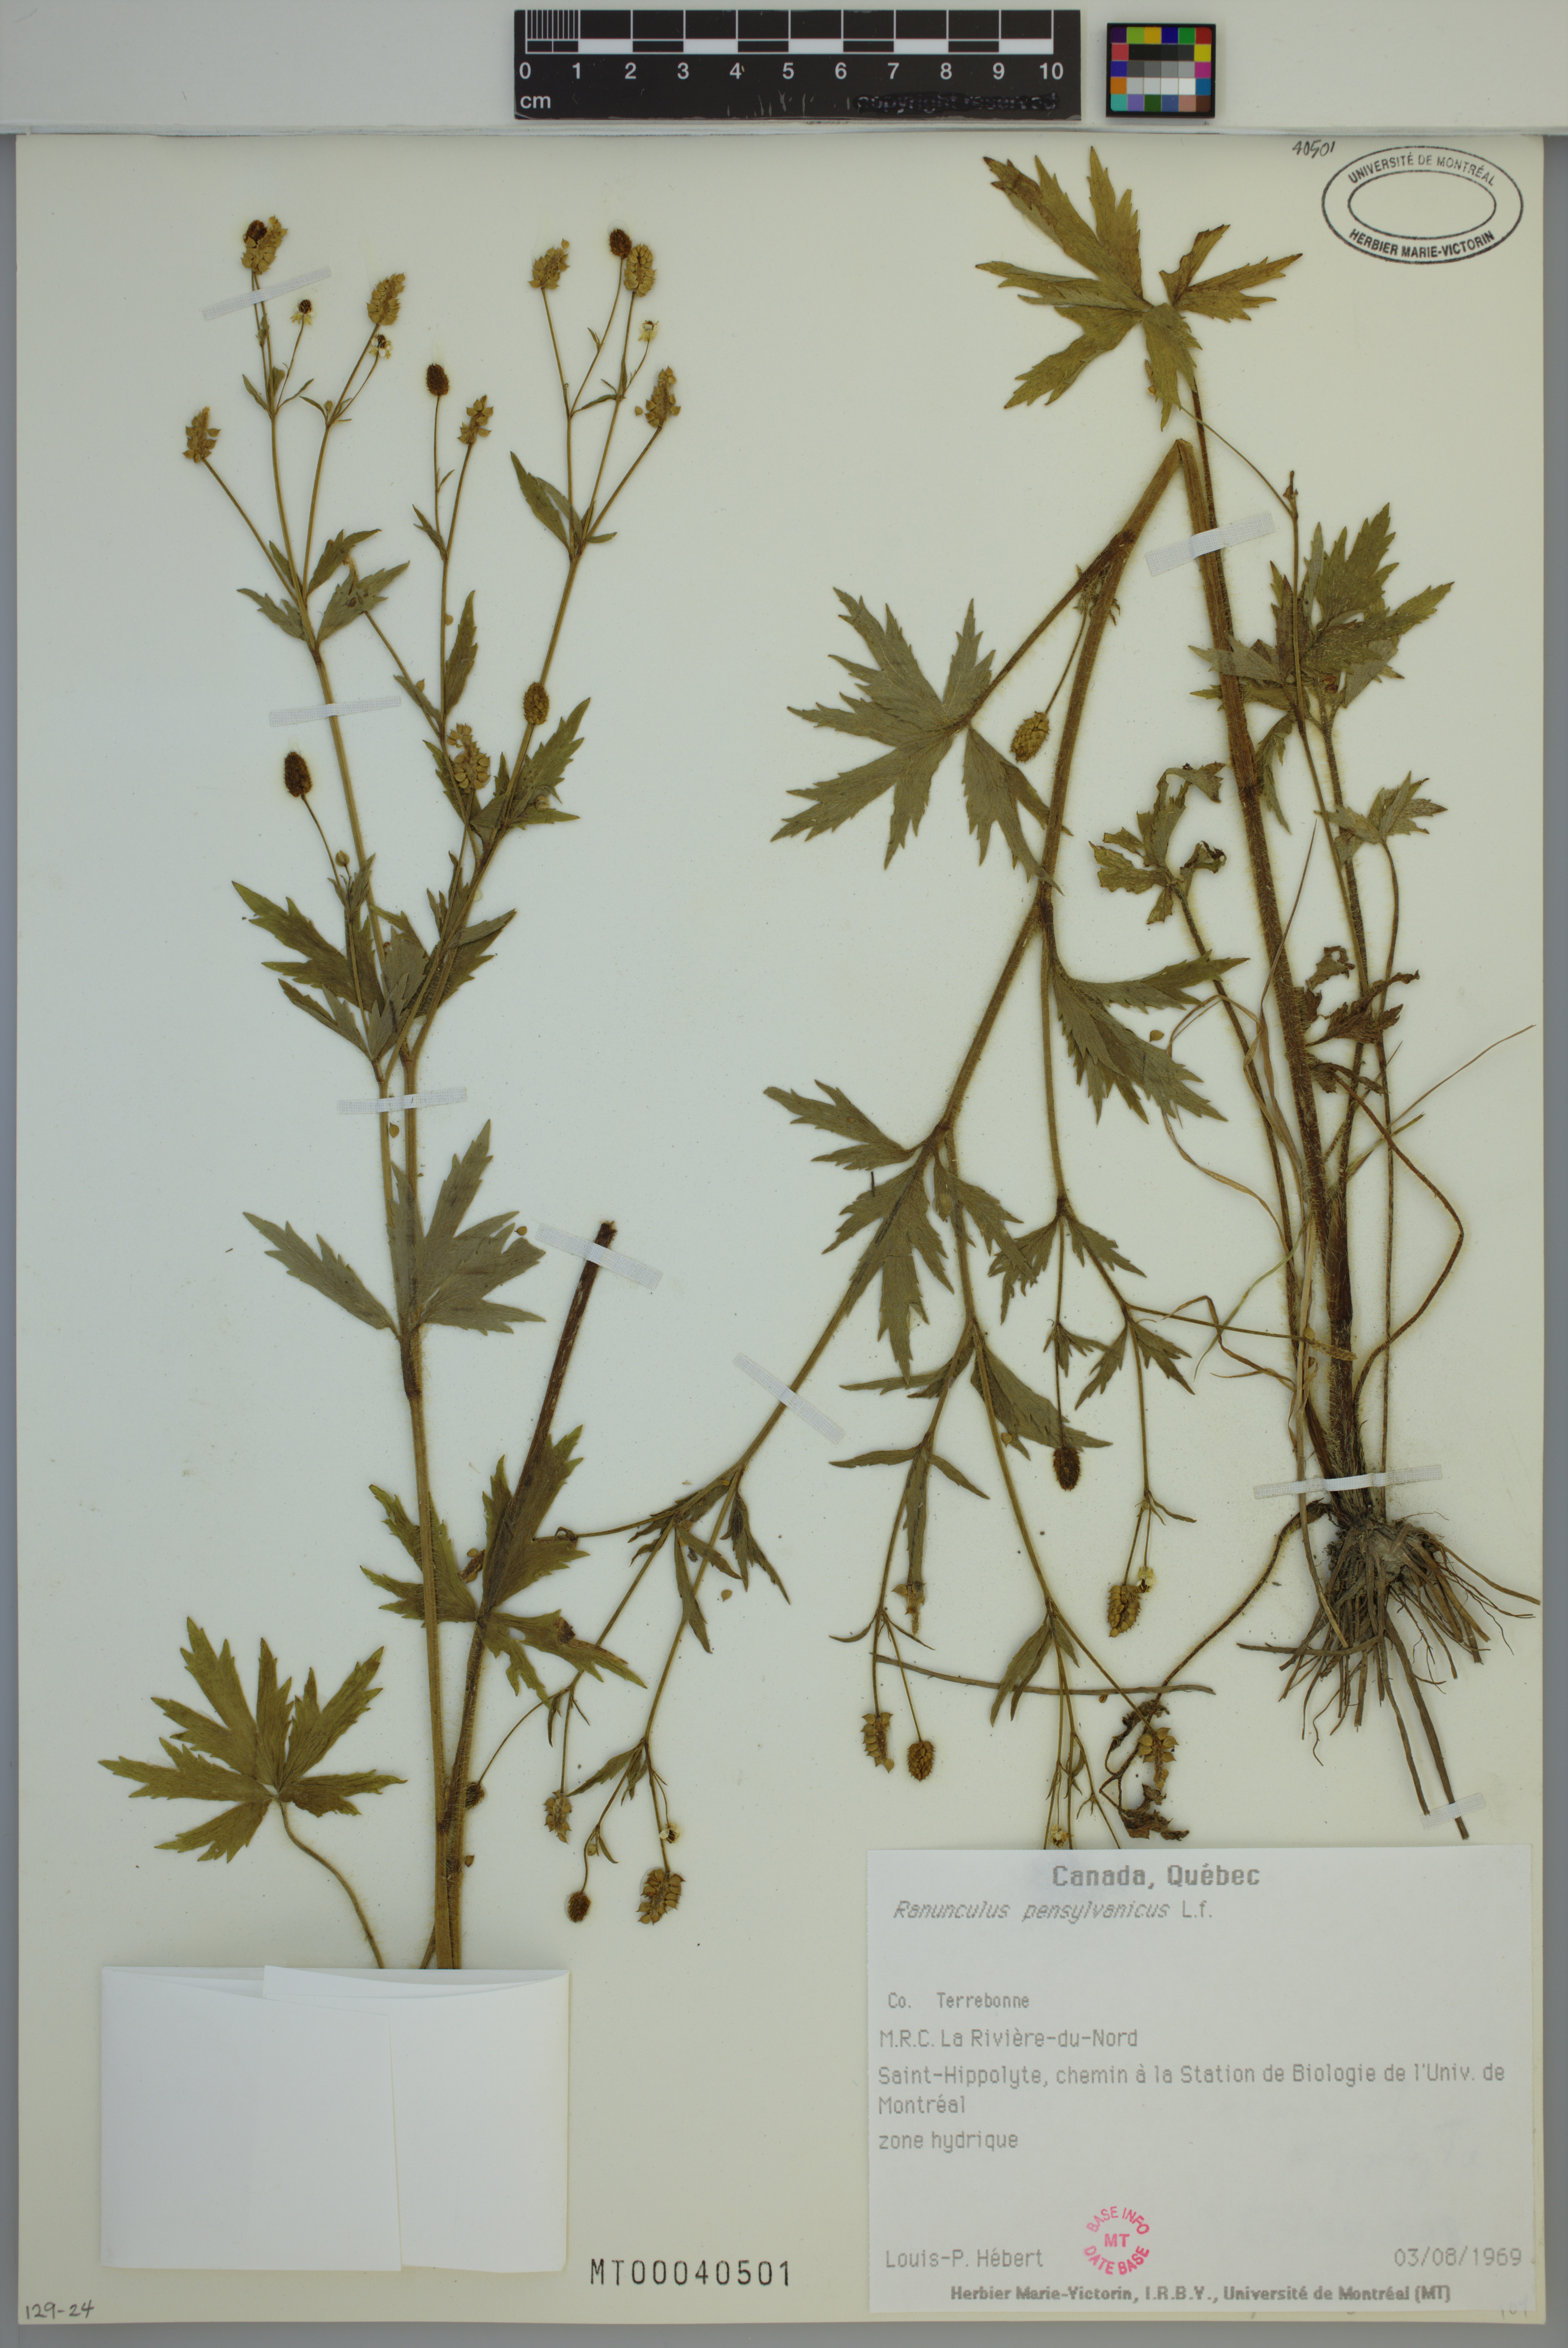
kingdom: Plantae
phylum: Tracheophyta
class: Magnoliopsida
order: Ranunculales
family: Ranunculaceae
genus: Ranunculus
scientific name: Ranunculus pensylvanicus
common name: Bristly buttercup
